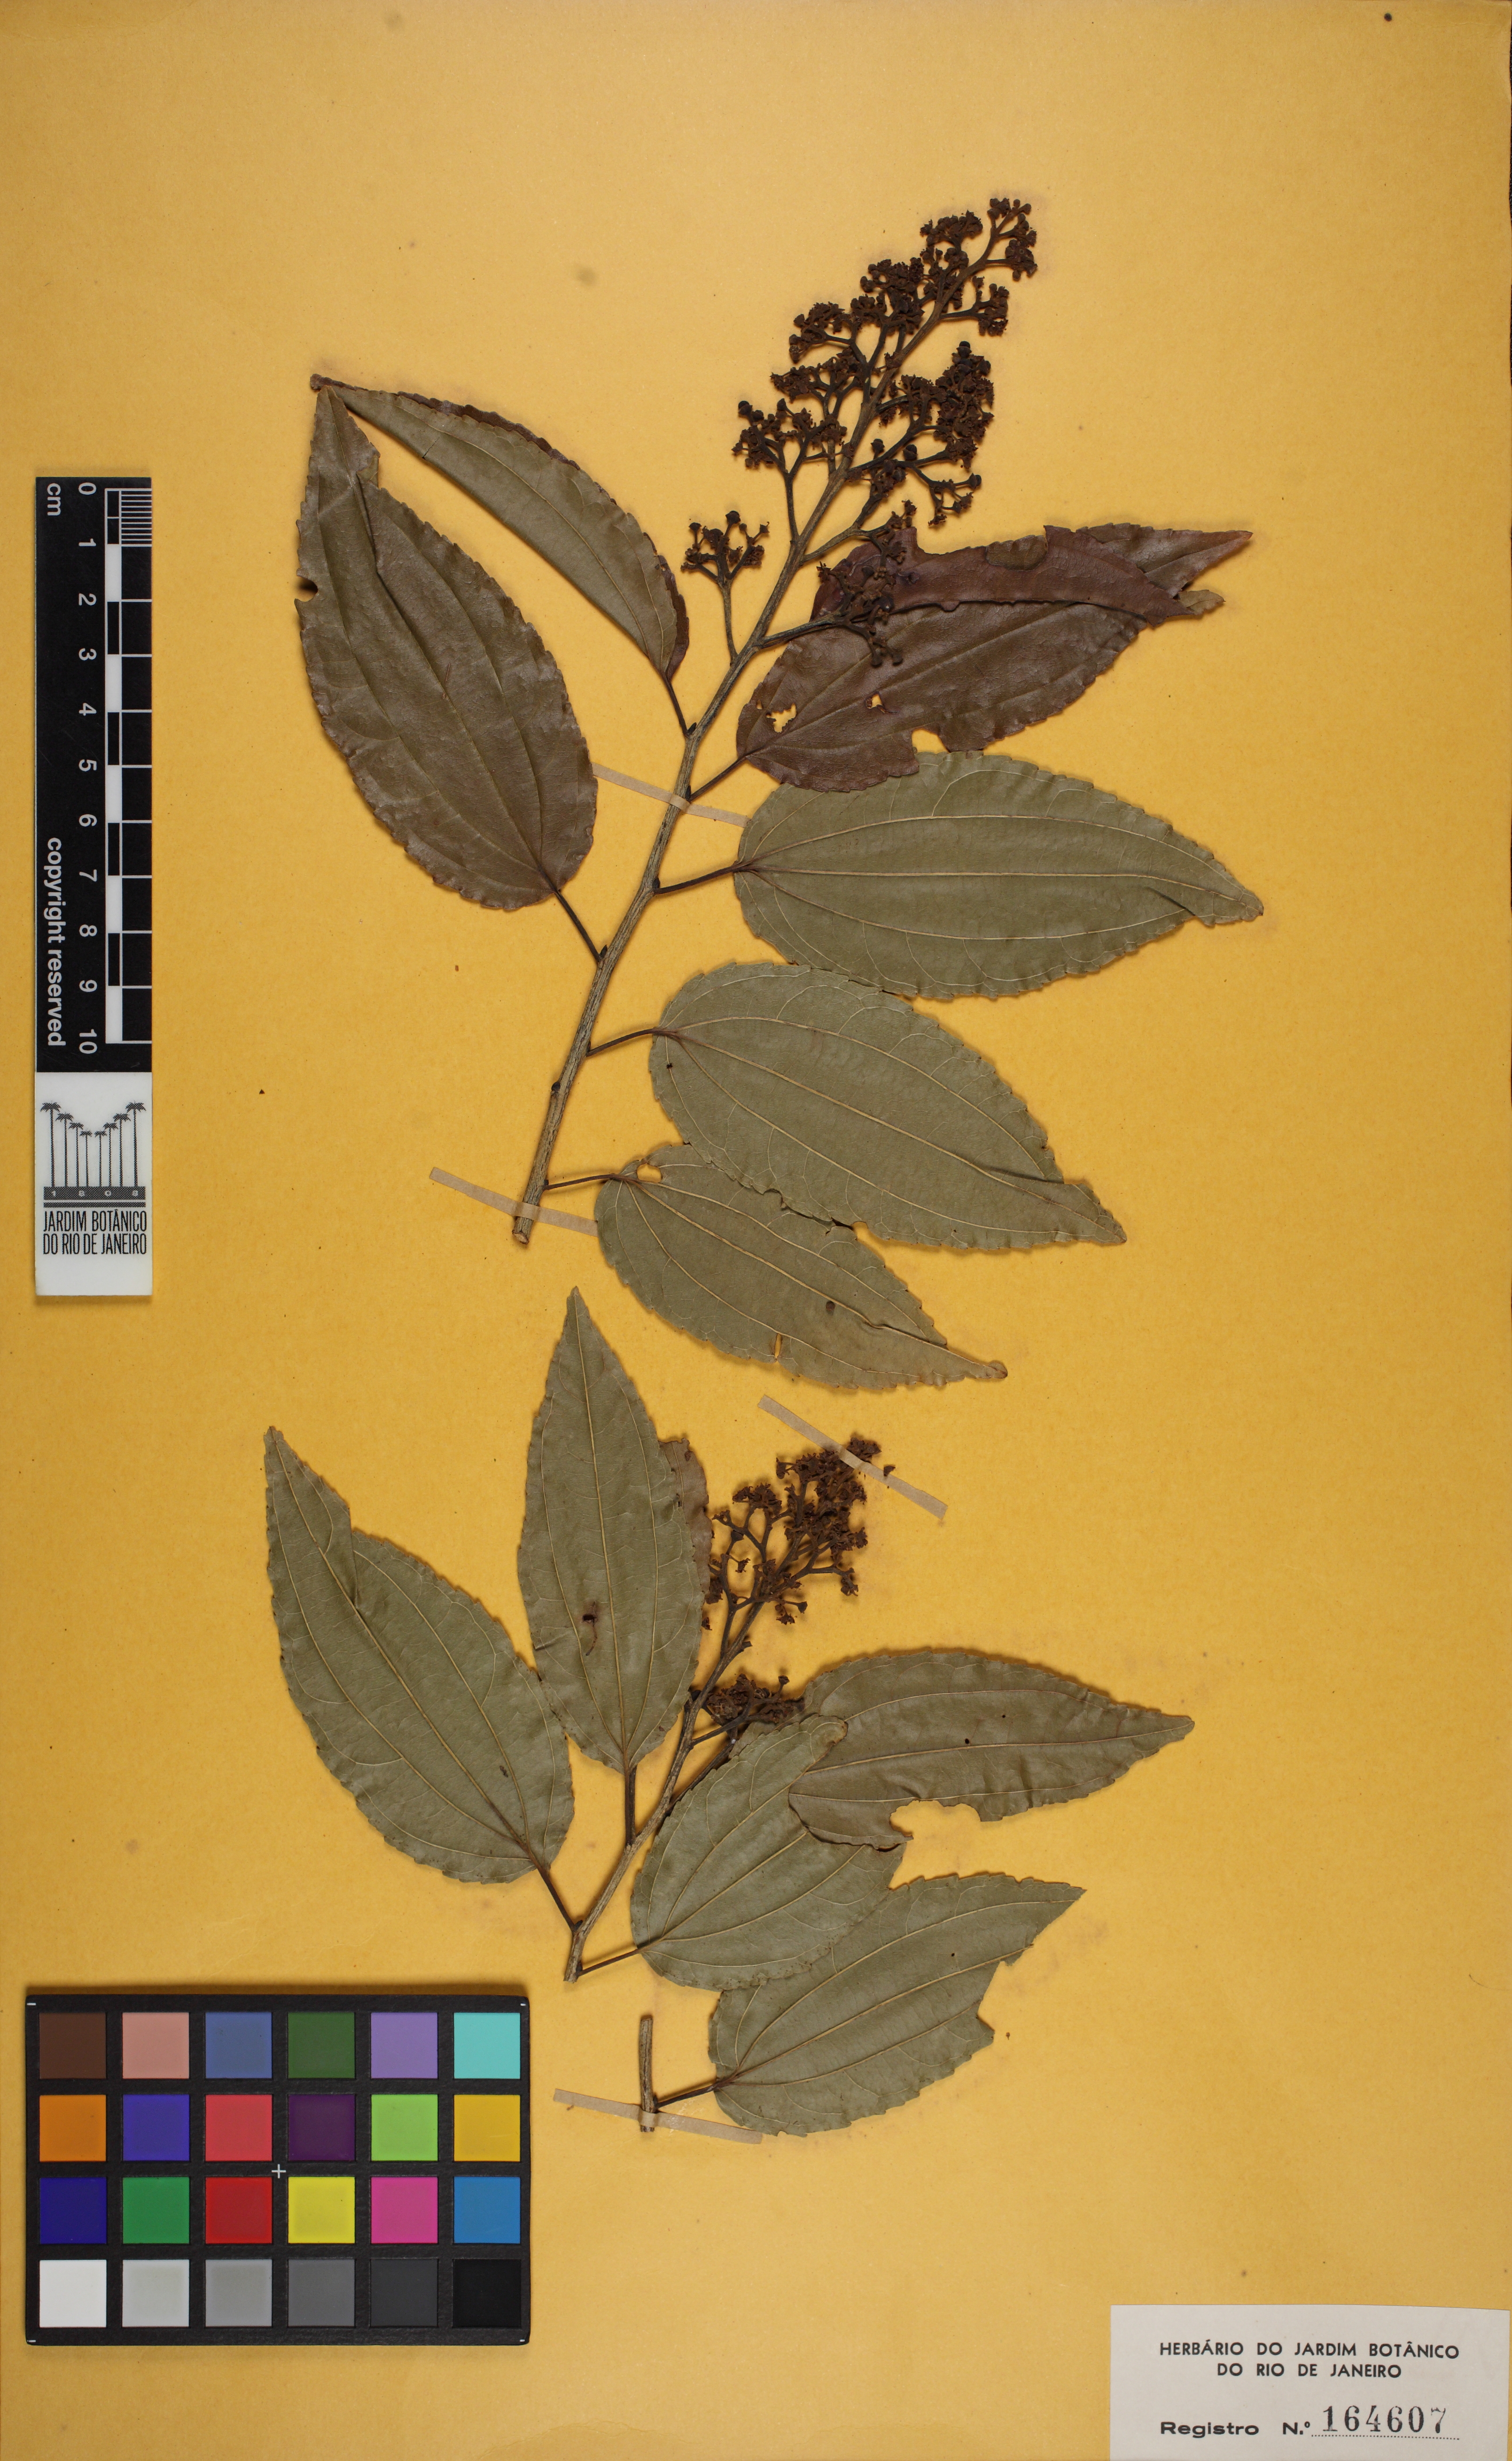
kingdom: Plantae
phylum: Tracheophyta
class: Magnoliopsida
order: Rosales
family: Rhamnaceae
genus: Sarcomphalus
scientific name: Sarcomphalus platyphyllus
